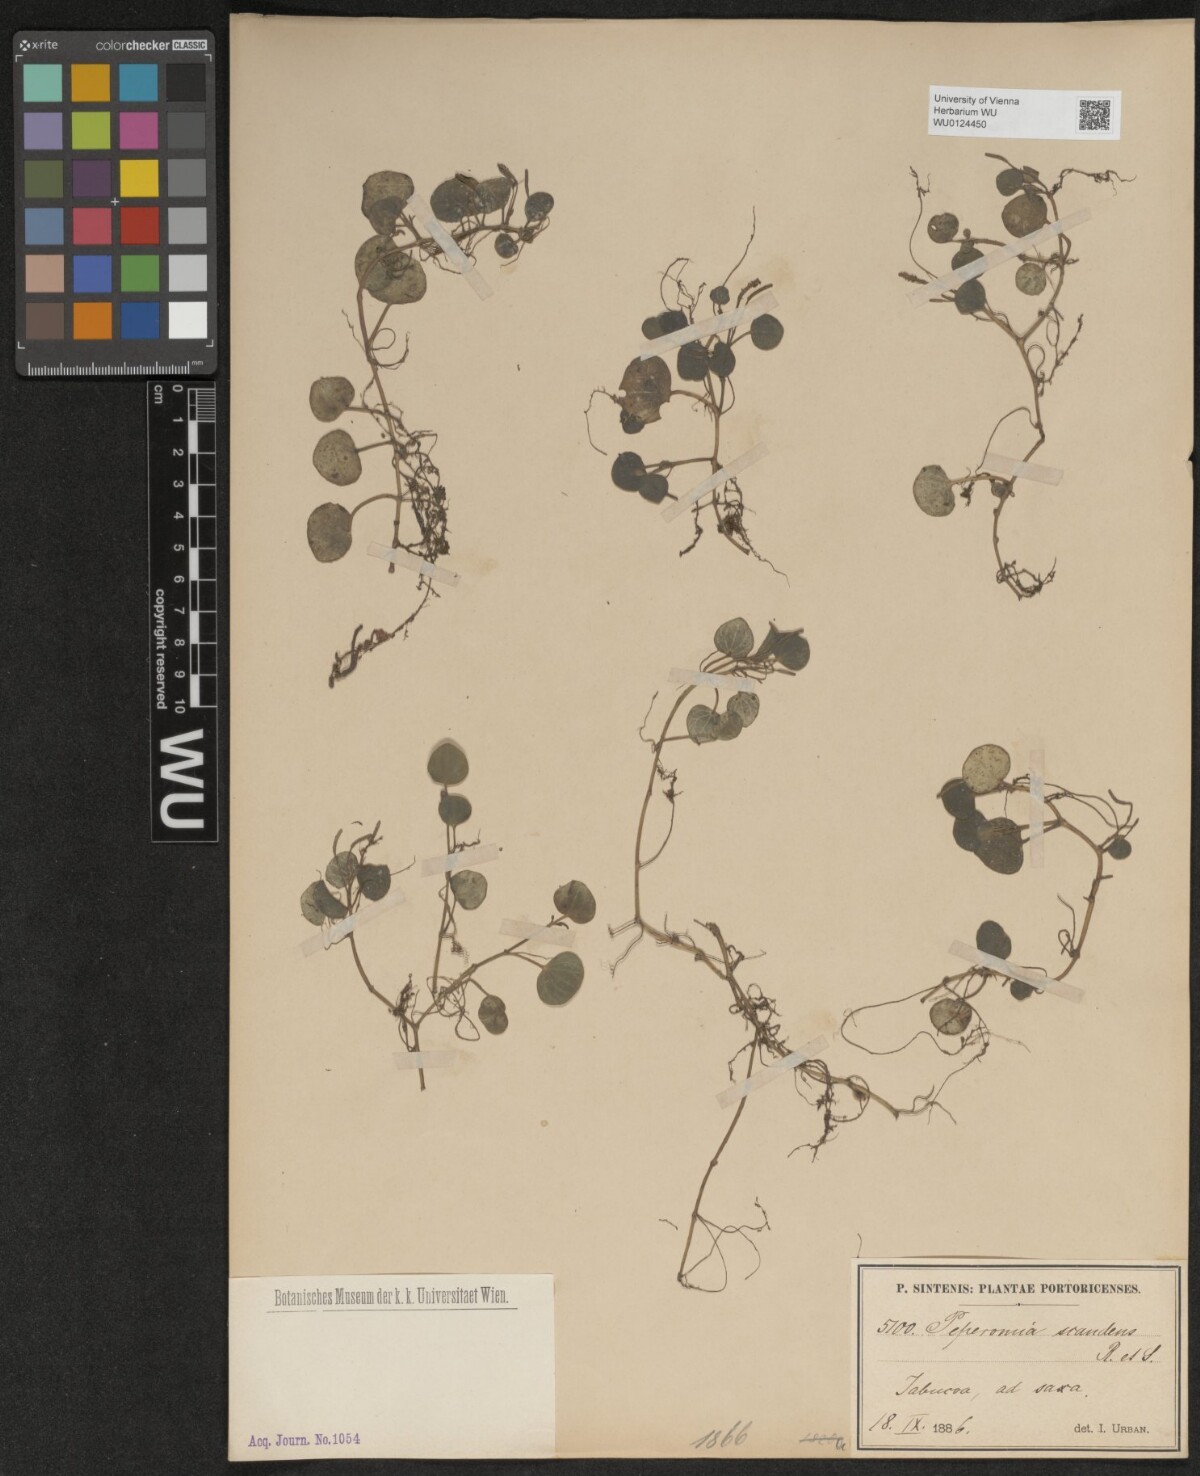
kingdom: Plantae
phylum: Tracheophyta
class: Magnoliopsida
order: Piperales
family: Piperaceae
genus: Peperomia
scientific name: Peperomia serpens
